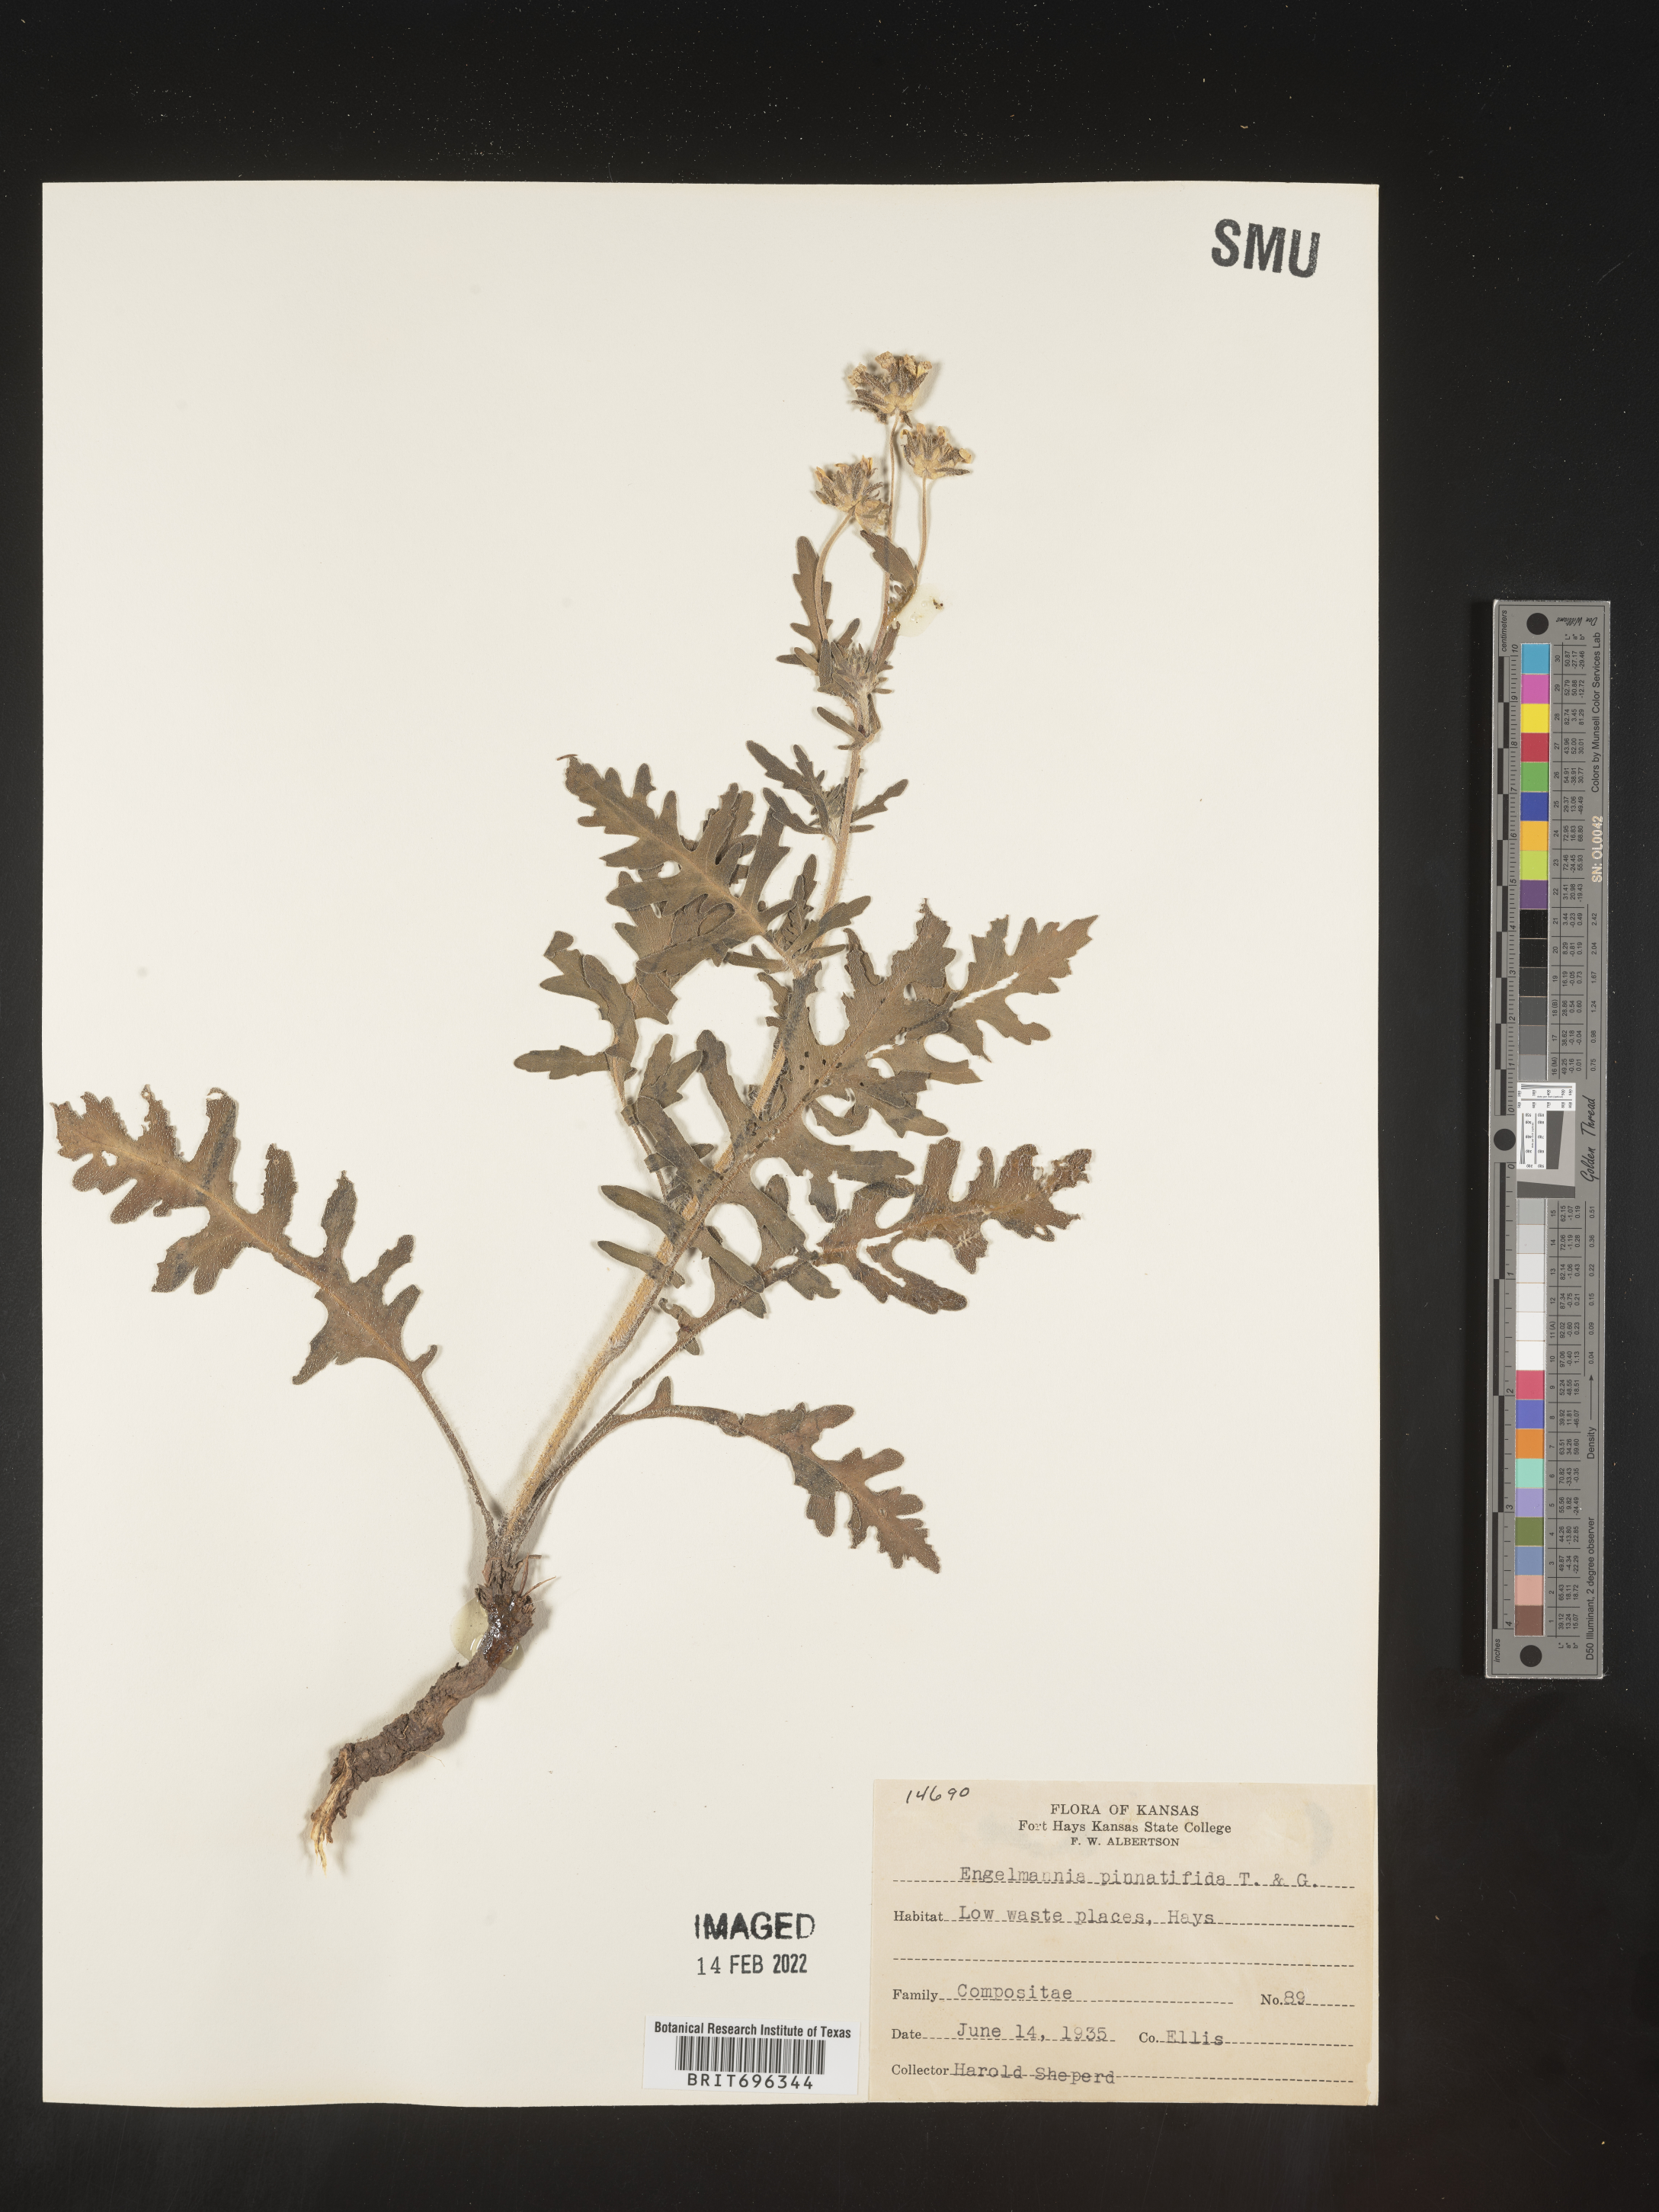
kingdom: Plantae
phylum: Tracheophyta
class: Magnoliopsida
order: Asterales
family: Asteraceae
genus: Engelmannia
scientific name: Engelmannia peristenia
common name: Engelmann's daisy
